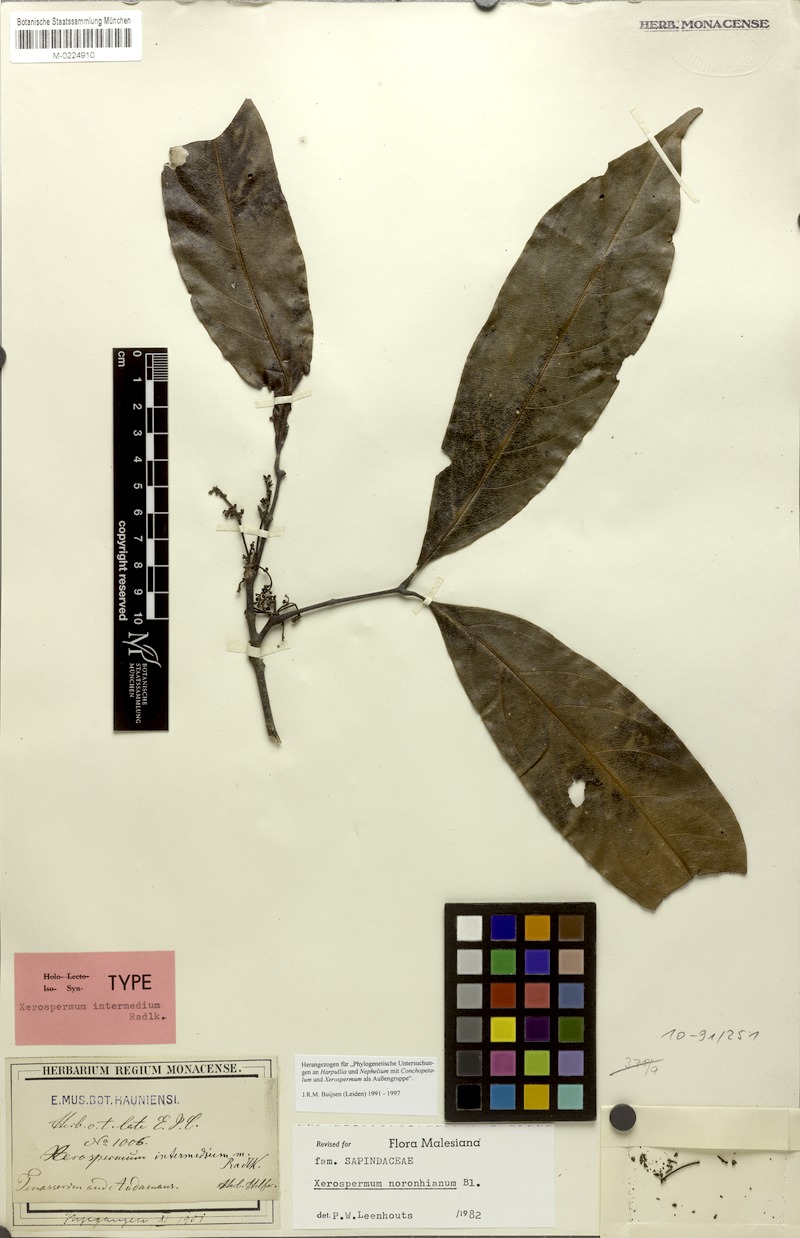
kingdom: Plantae
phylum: Tracheophyta
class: Magnoliopsida
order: Sapindales
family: Sapindaceae
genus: Xerospermum
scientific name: Xerospermum noronhianum
